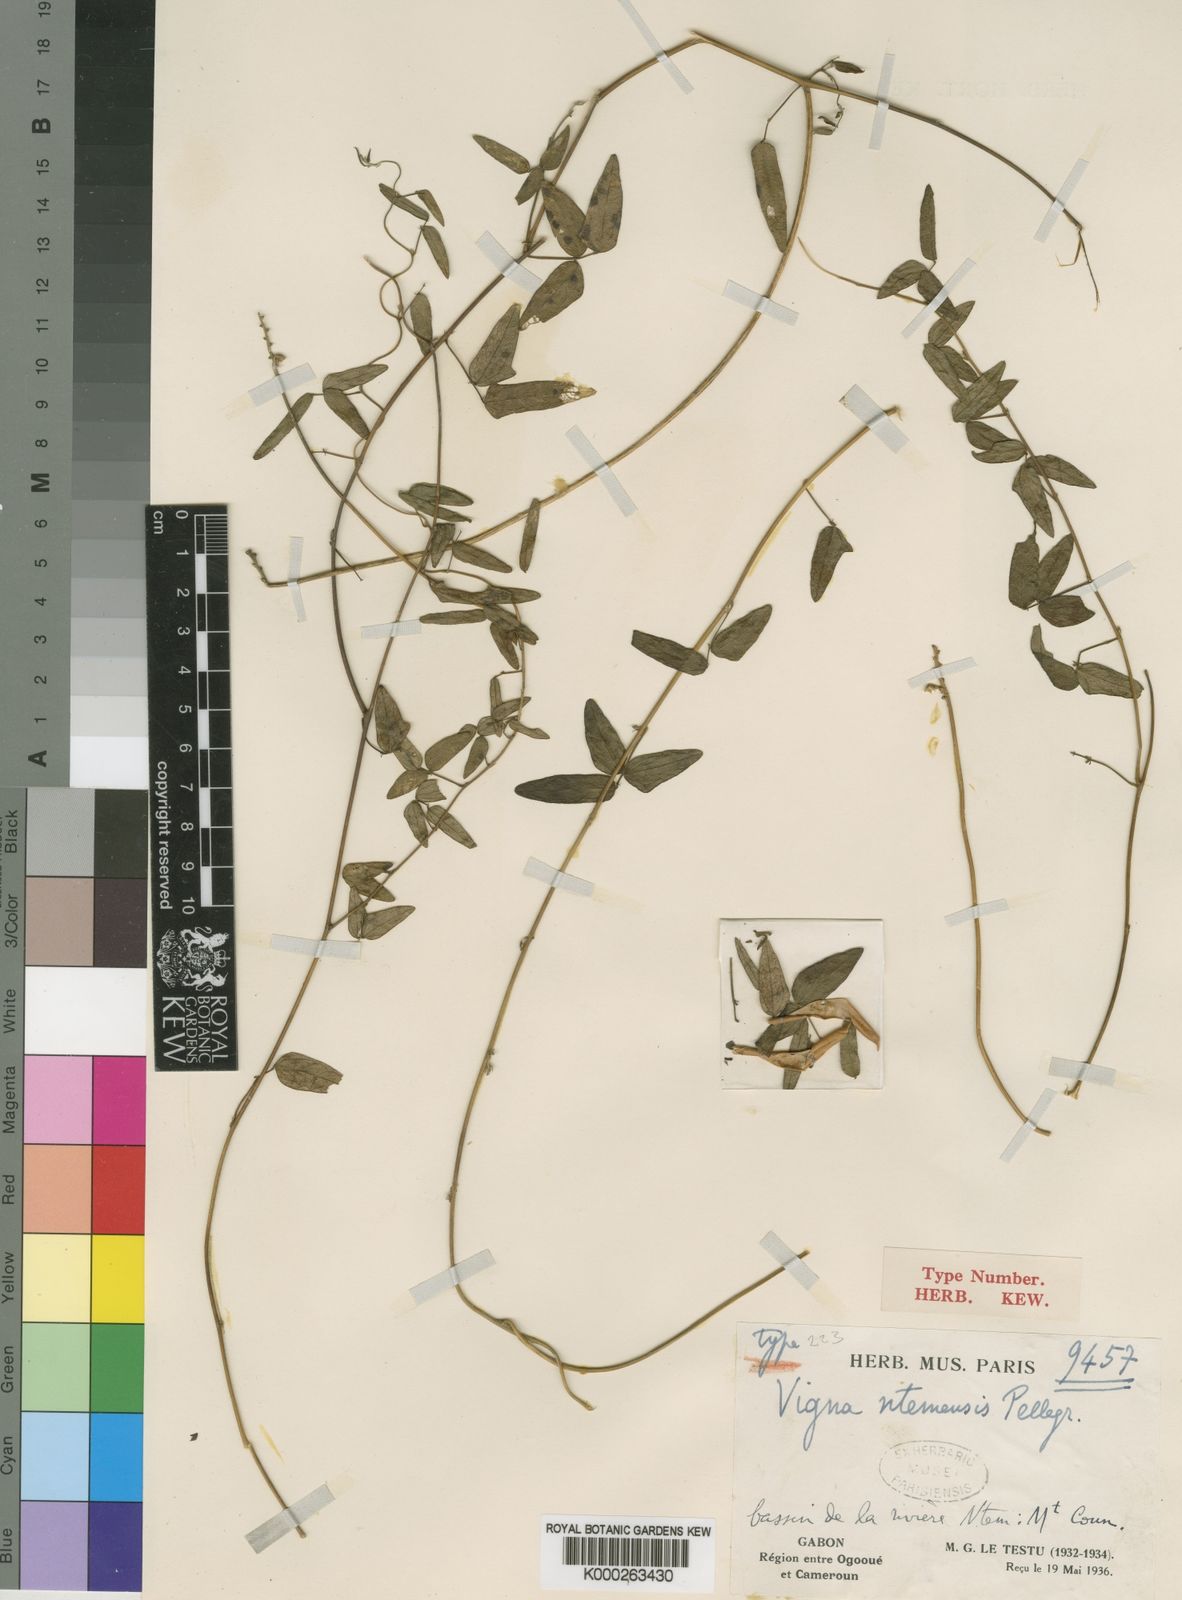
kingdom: Plantae
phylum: Tracheophyta
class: Magnoliopsida
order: Fabales
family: Fabaceae
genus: Vigna
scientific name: Vigna comosa
